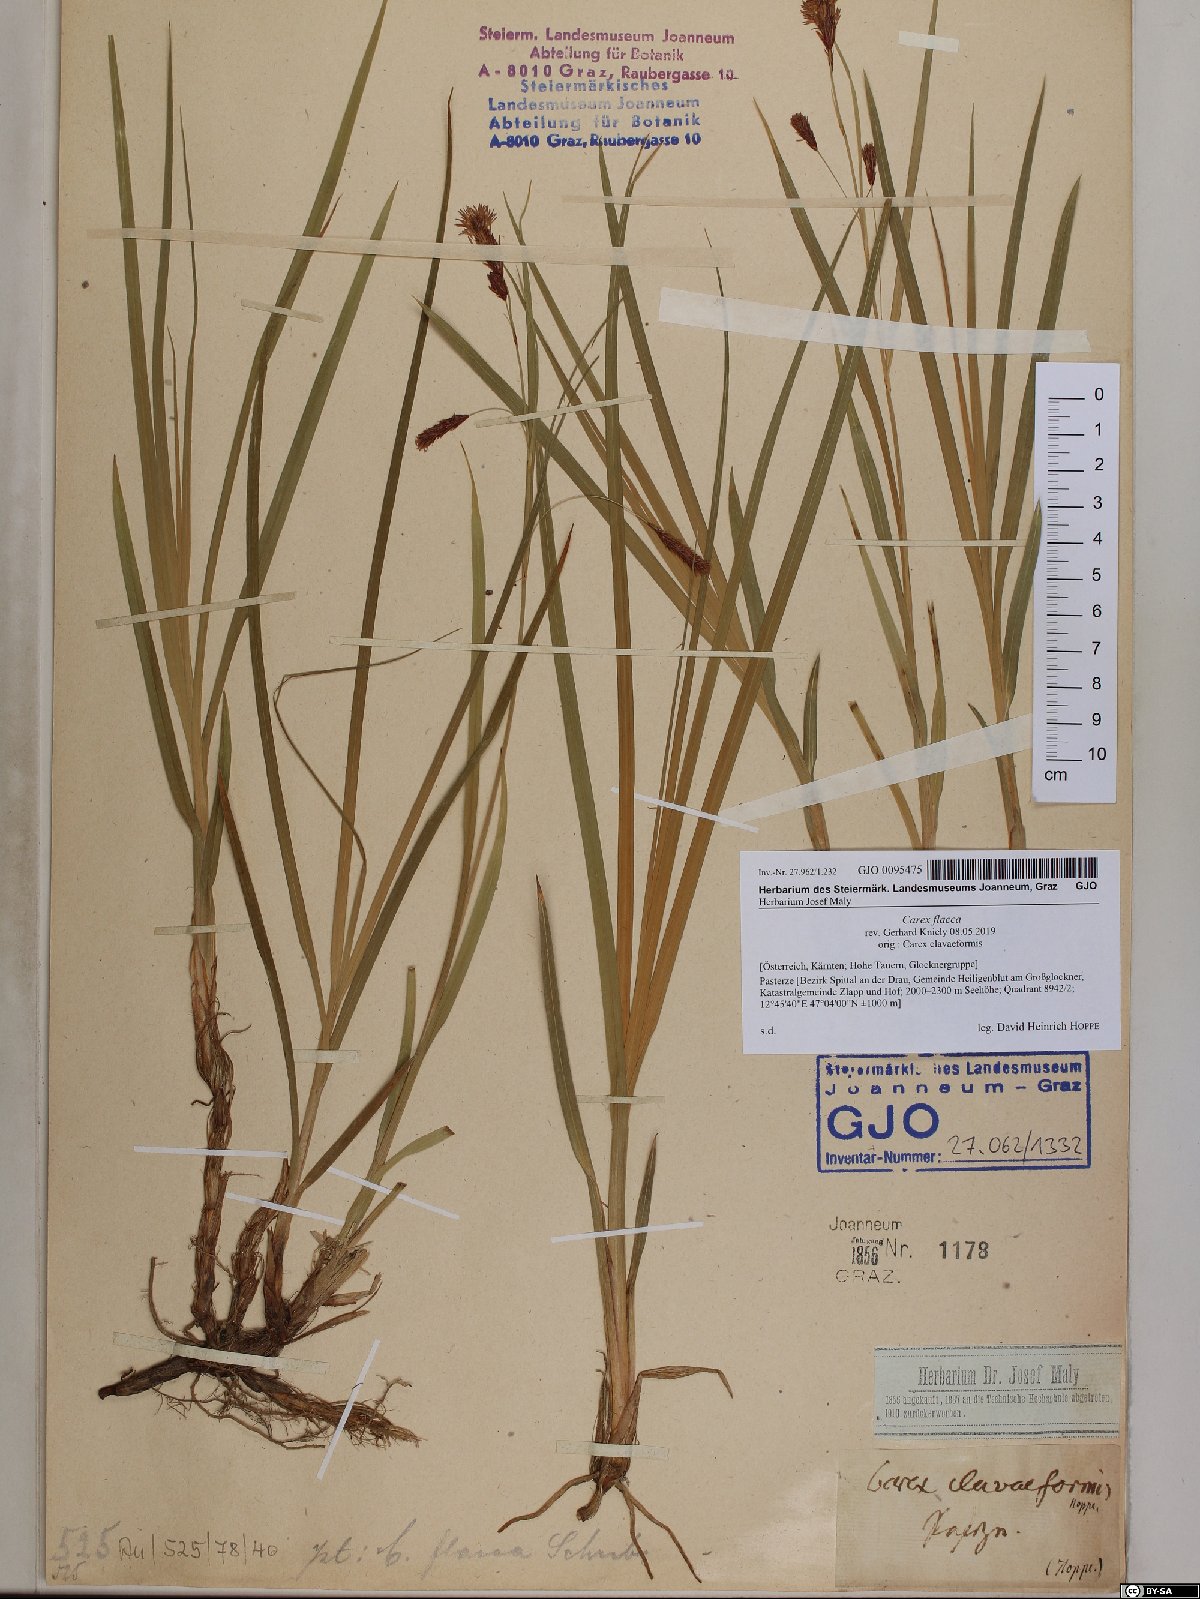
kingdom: Plantae
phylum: Tracheophyta
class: Liliopsida
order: Poales
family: Cyperaceae
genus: Carex
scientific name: Carex flacca
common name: Glaucous sedge
